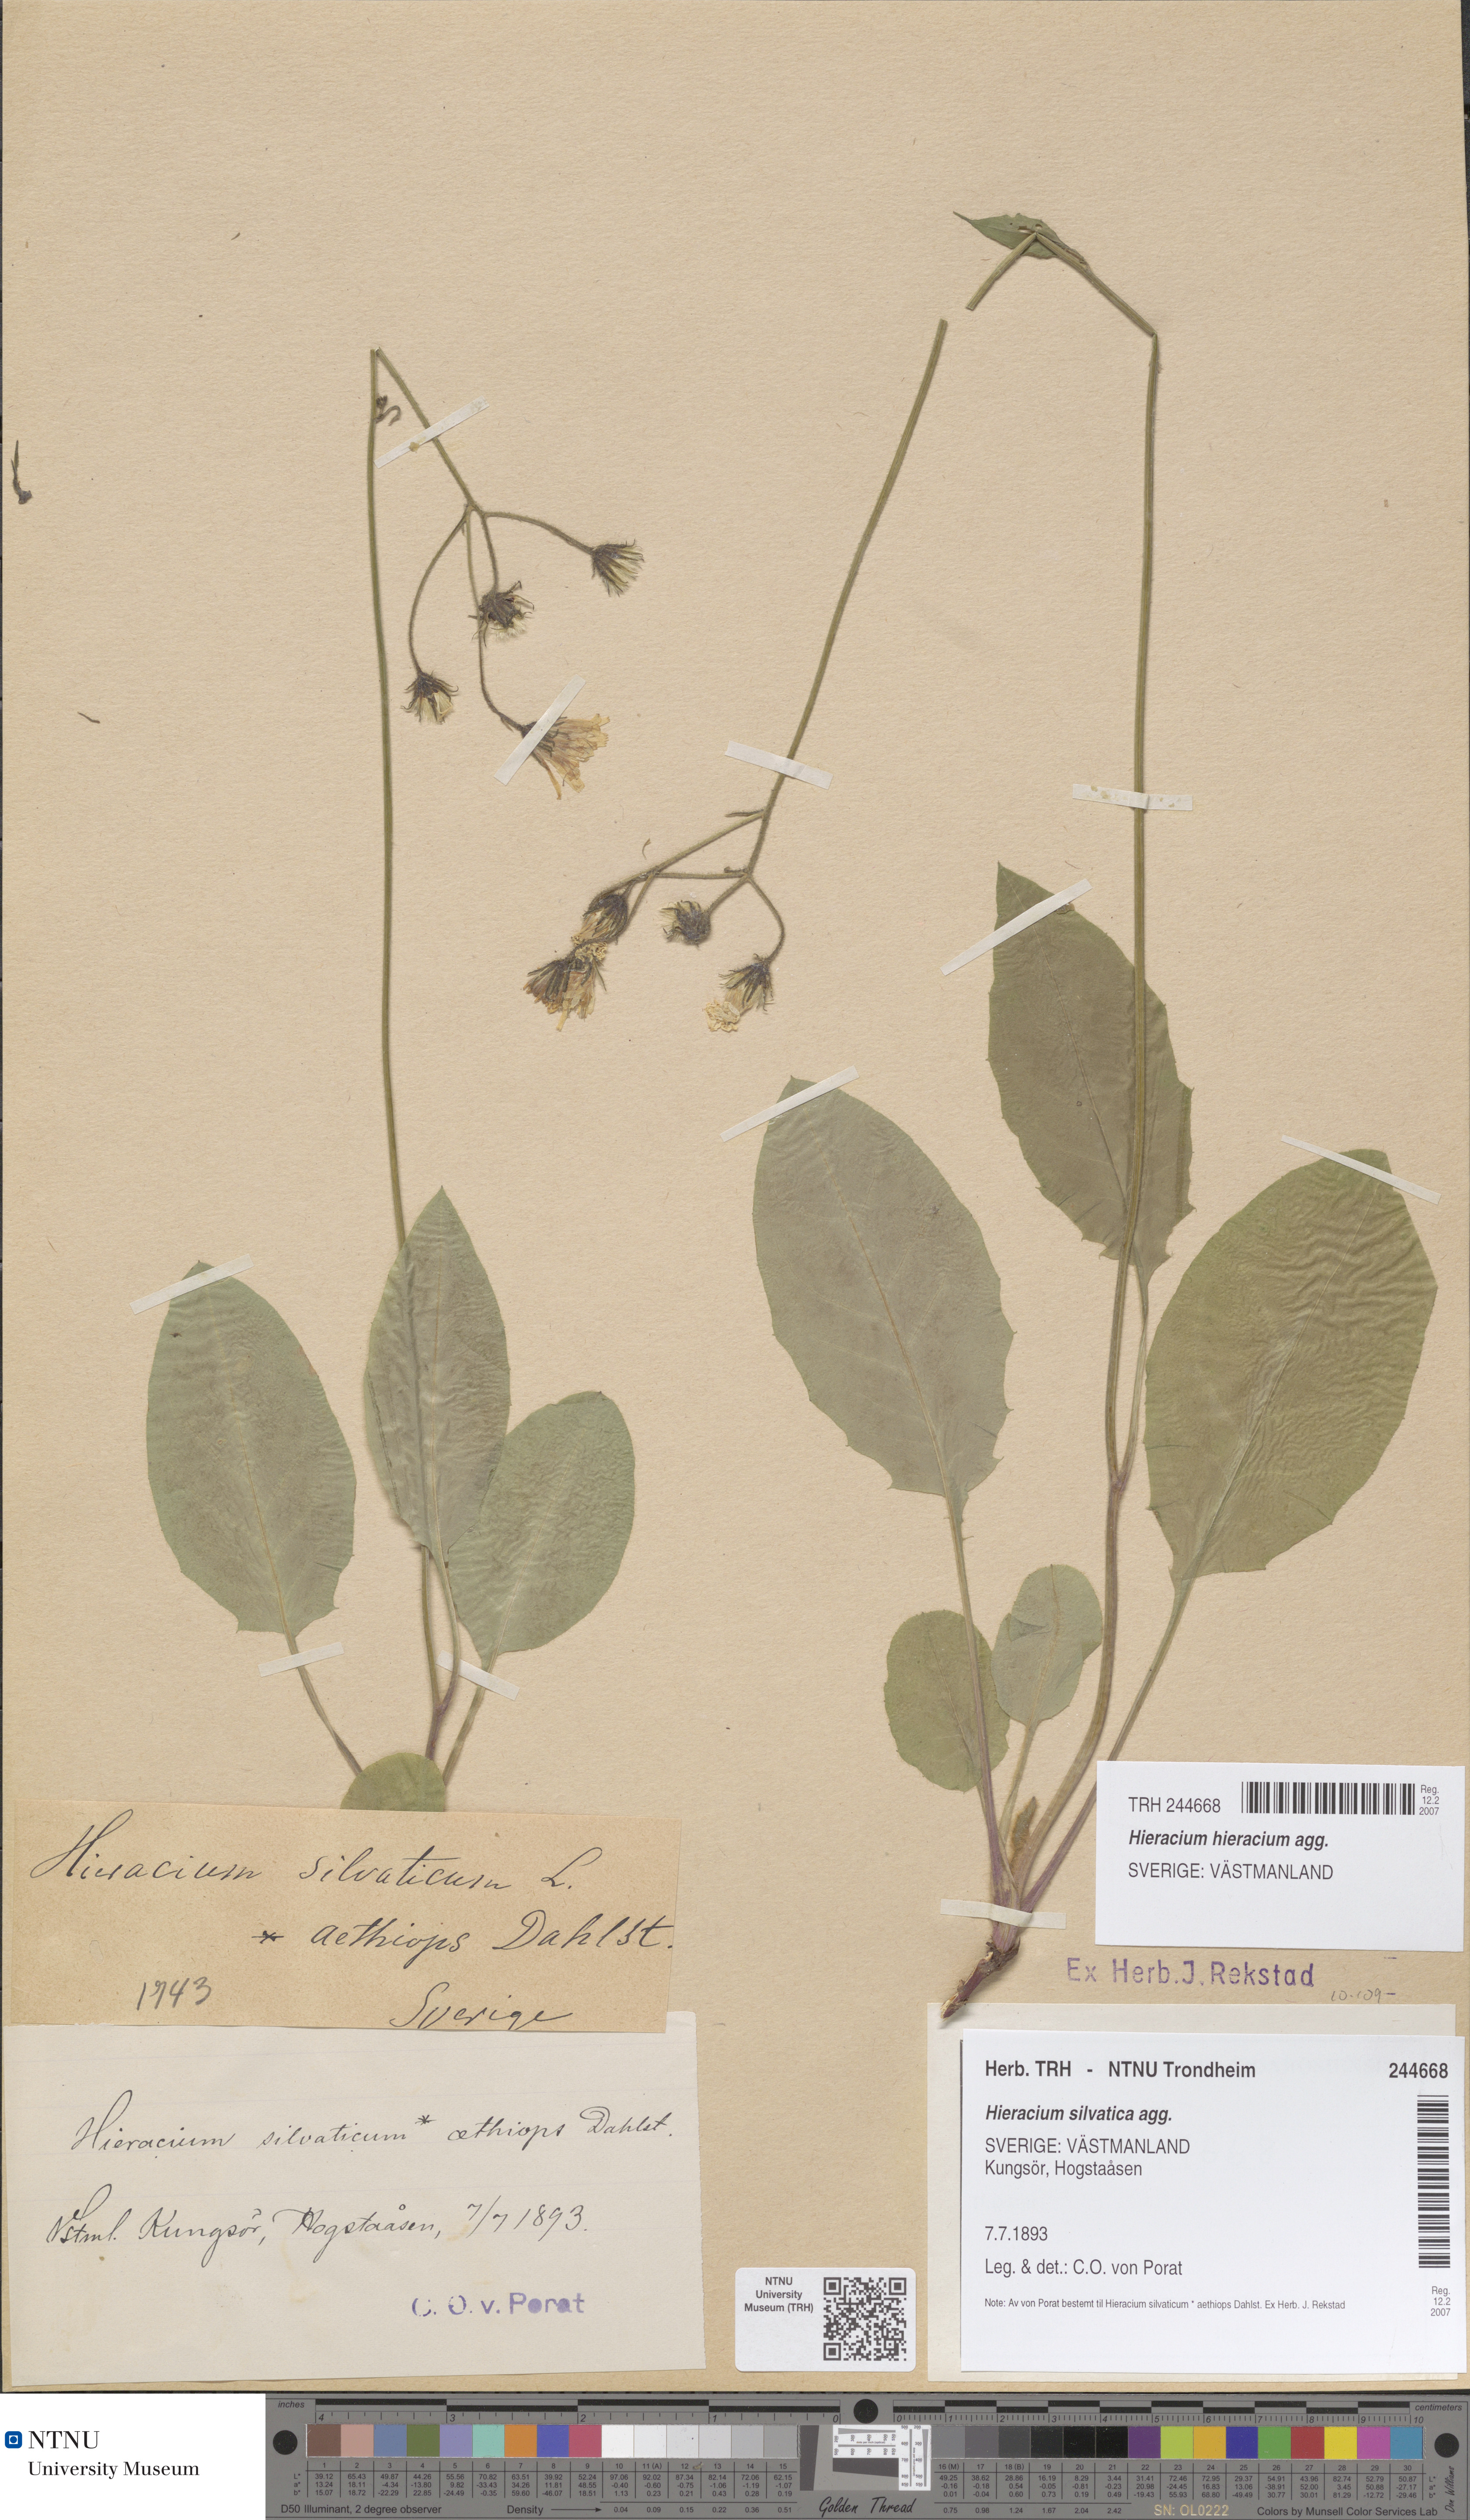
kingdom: Plantae
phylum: Tracheophyta
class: Magnoliopsida
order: Asterales
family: Asteraceae
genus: Hieracium
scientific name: Hieracium
